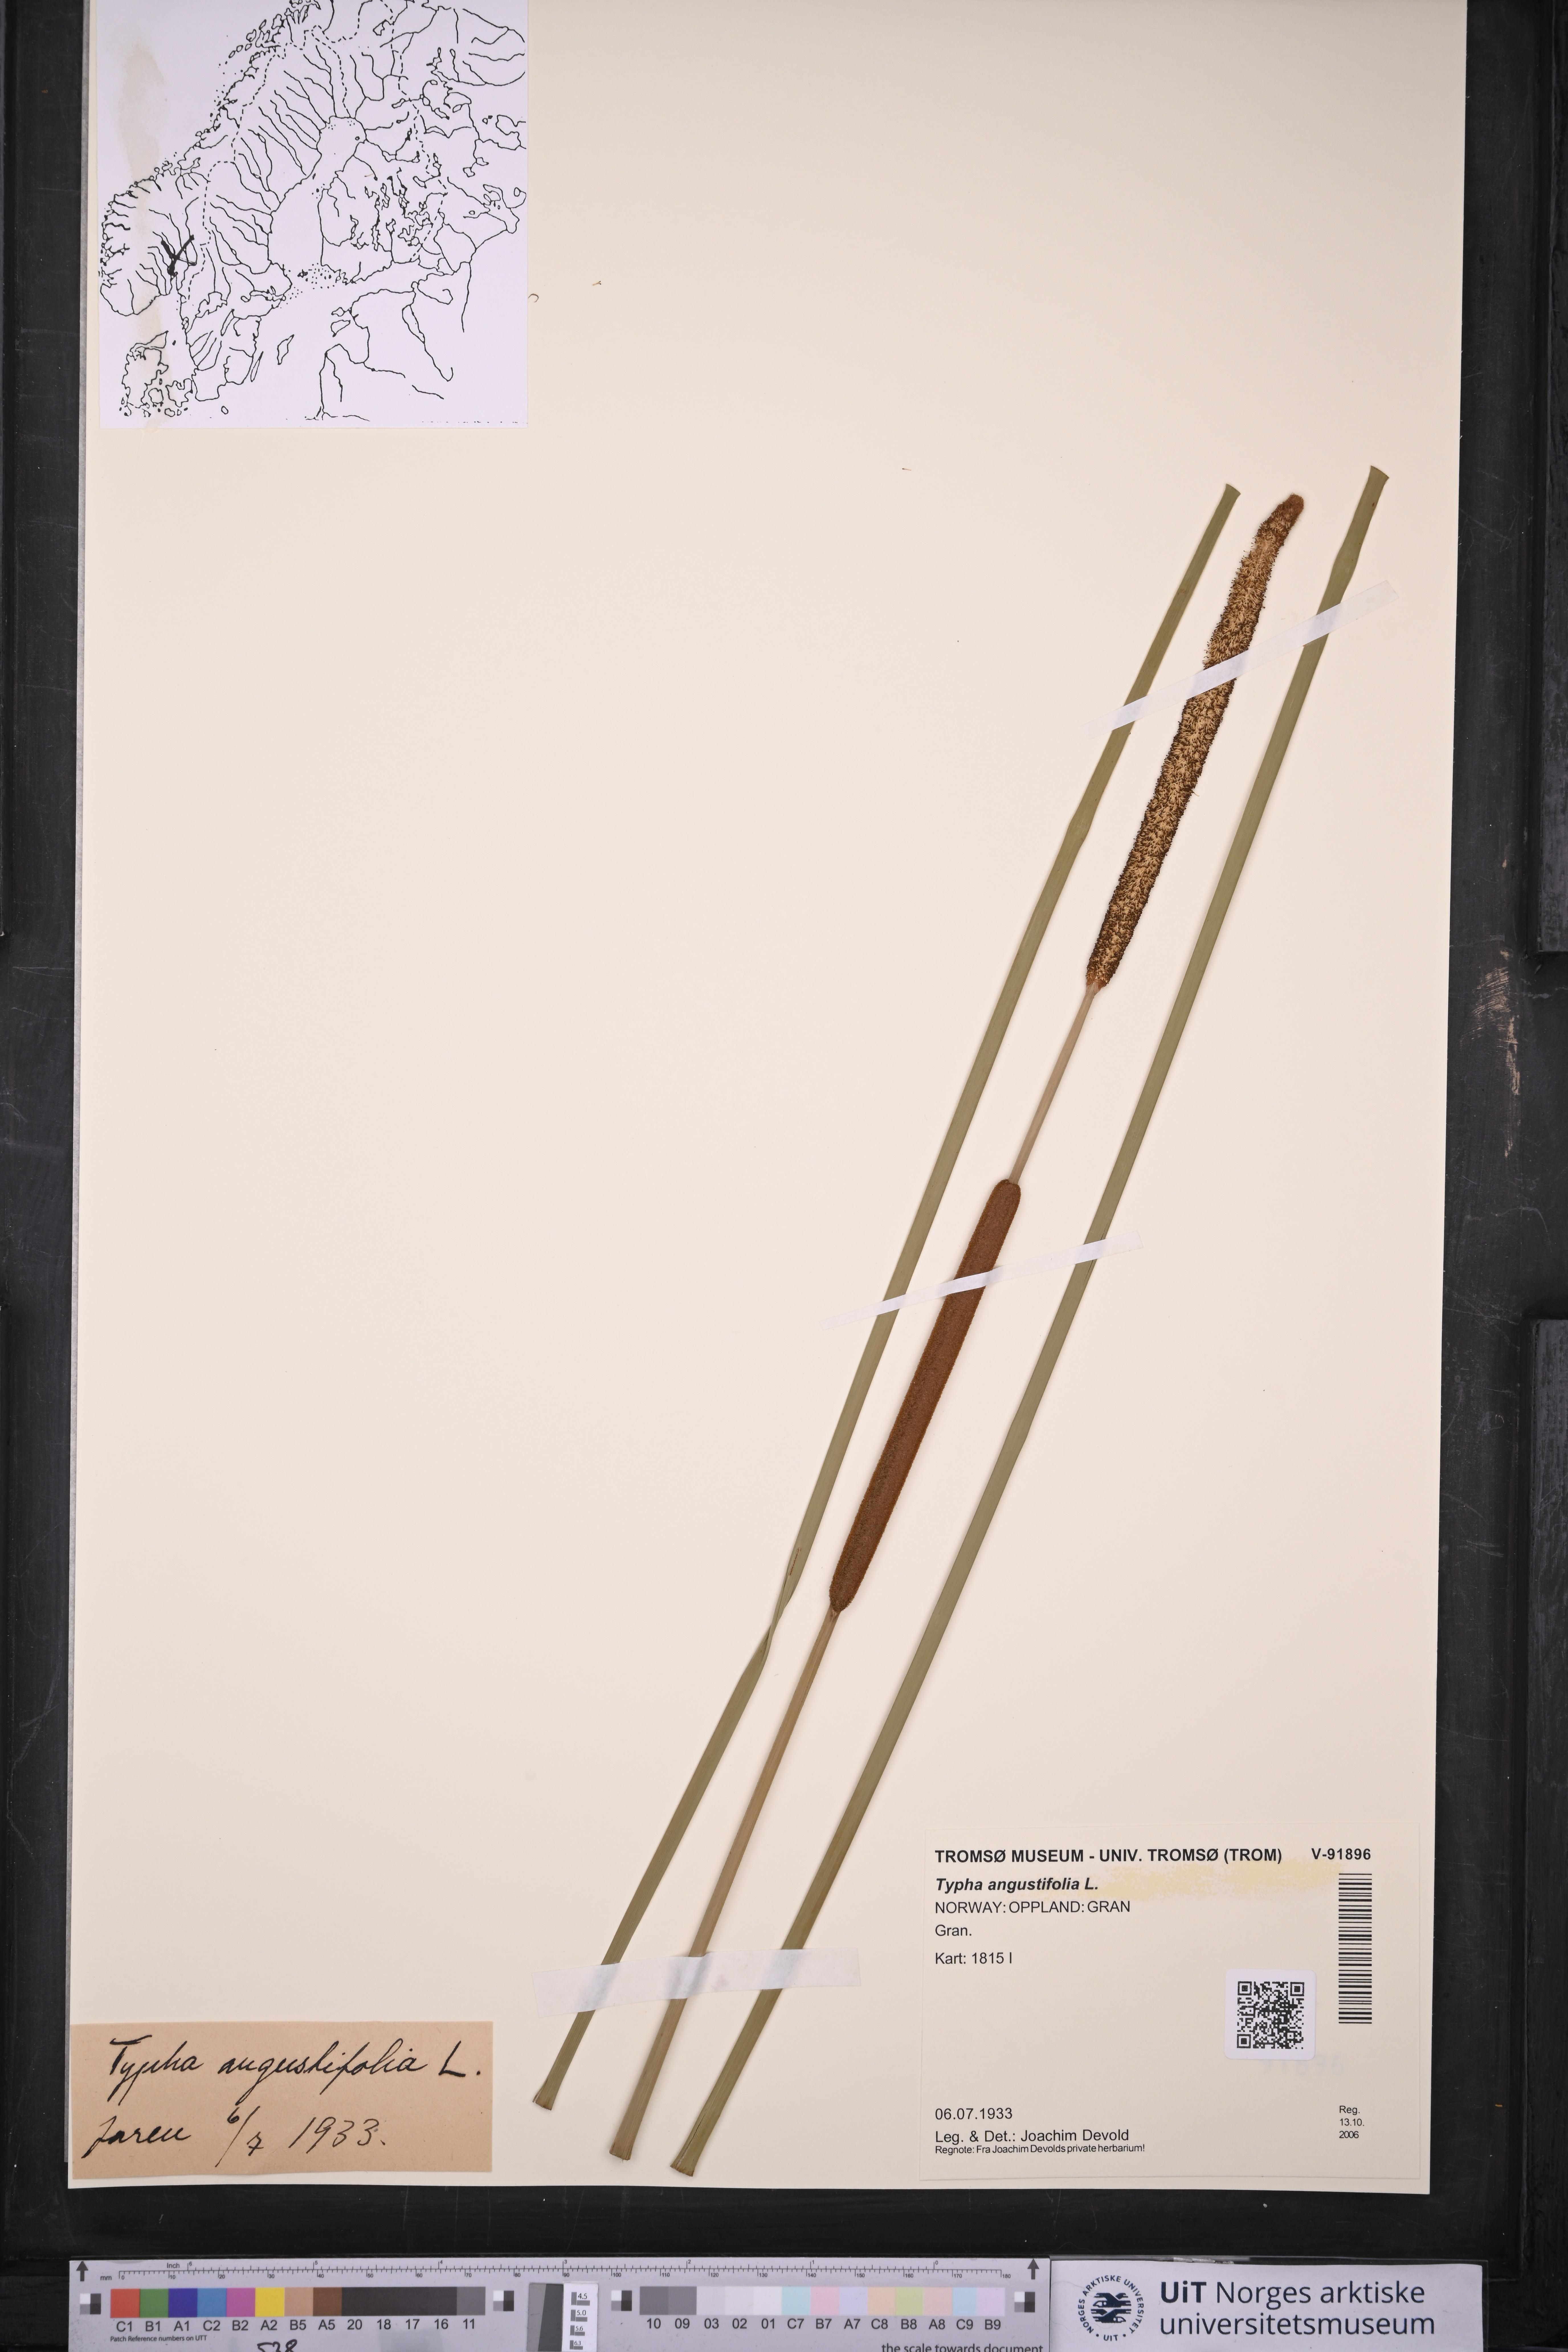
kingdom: Plantae
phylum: Tracheophyta
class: Liliopsida
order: Poales
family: Typhaceae
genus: Typha
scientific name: Typha angustifolia
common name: Lesser bulrush
